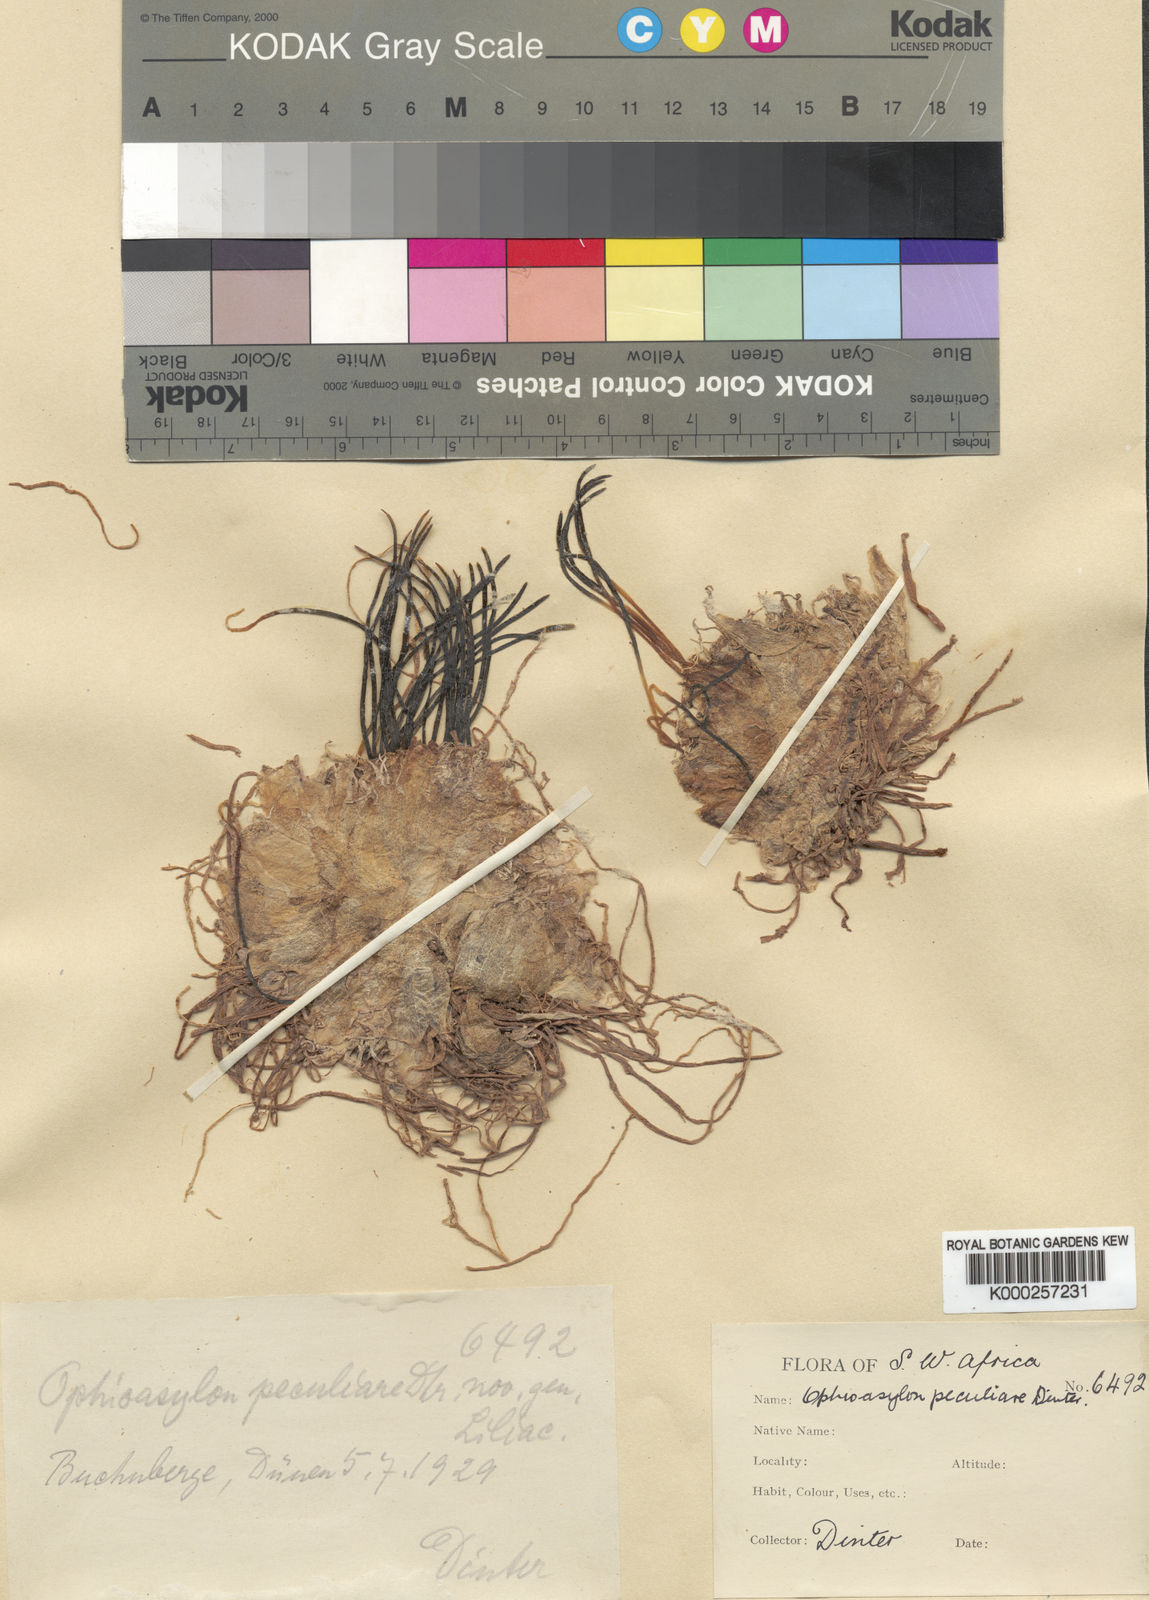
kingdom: Plantae
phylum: Tracheophyta
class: Liliopsida
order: Asparagales
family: Asparagaceae
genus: Drimia
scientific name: Drimia secunda
